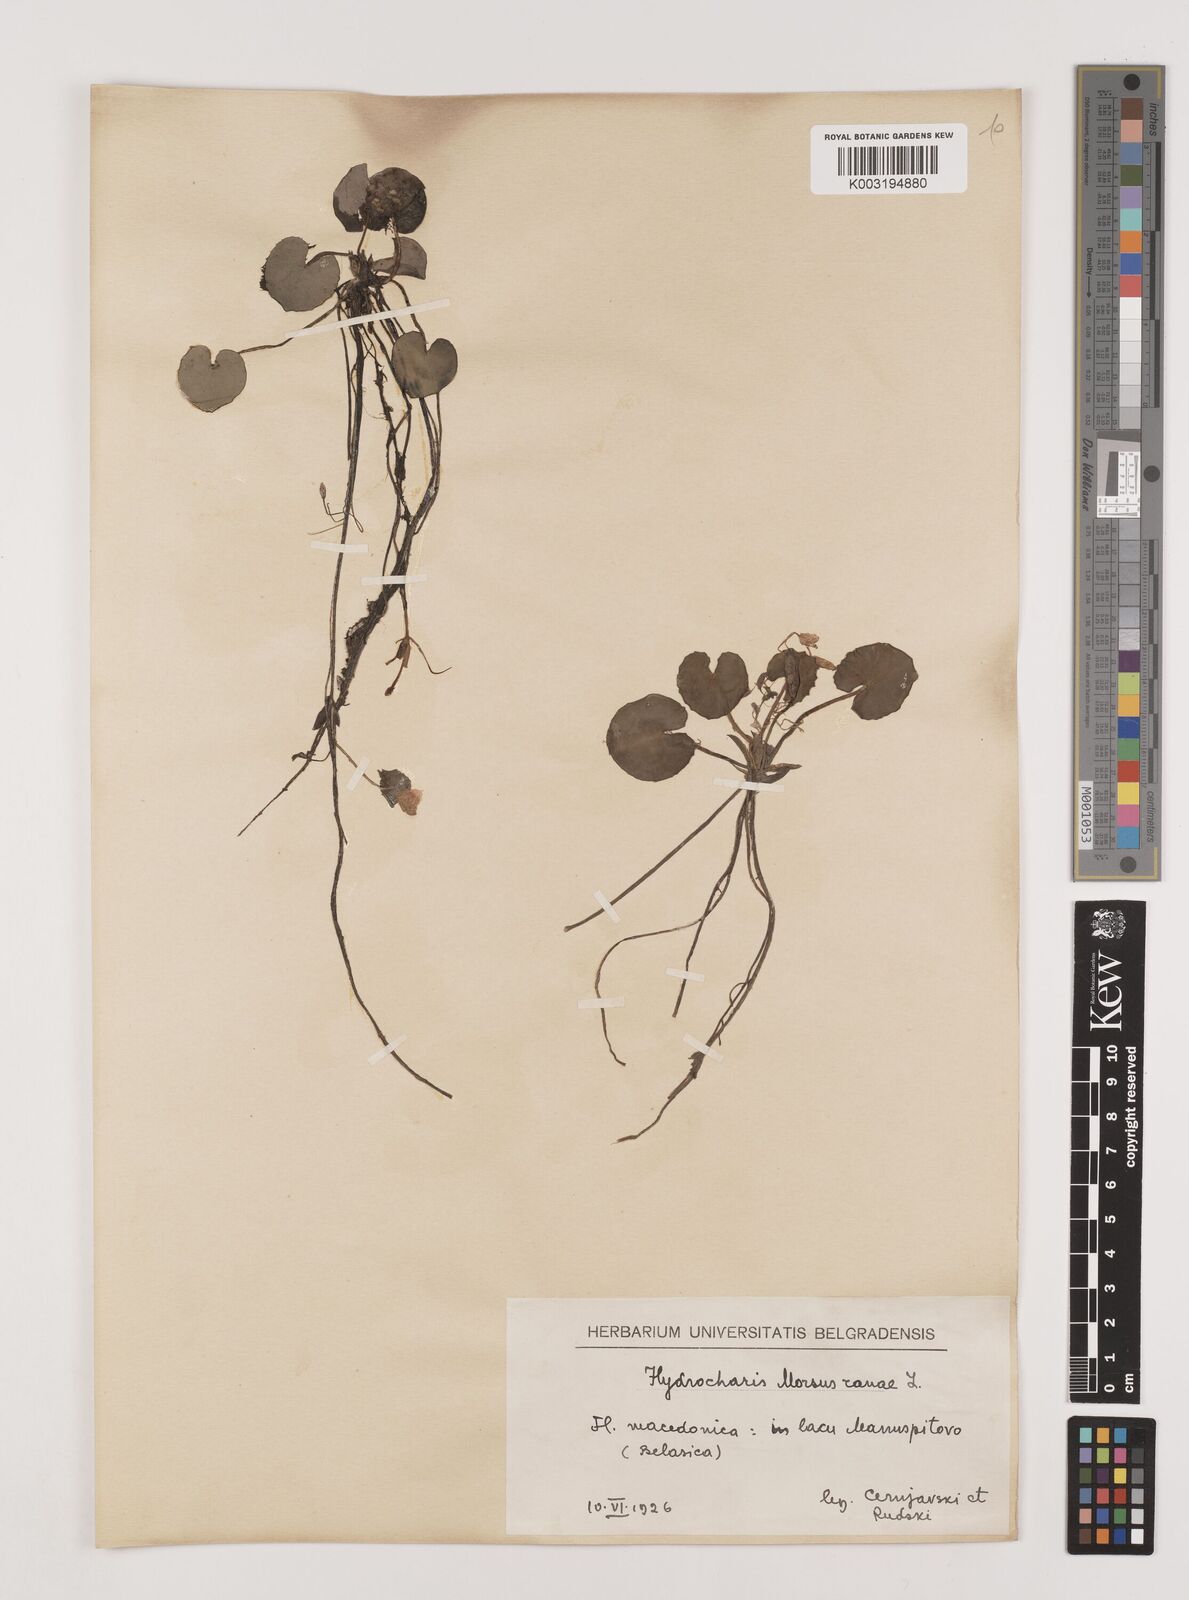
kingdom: Plantae
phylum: Tracheophyta
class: Liliopsida
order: Alismatales
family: Hydrocharitaceae
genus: Hydrocharis
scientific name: Hydrocharis morsus-ranae
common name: Frogbit
